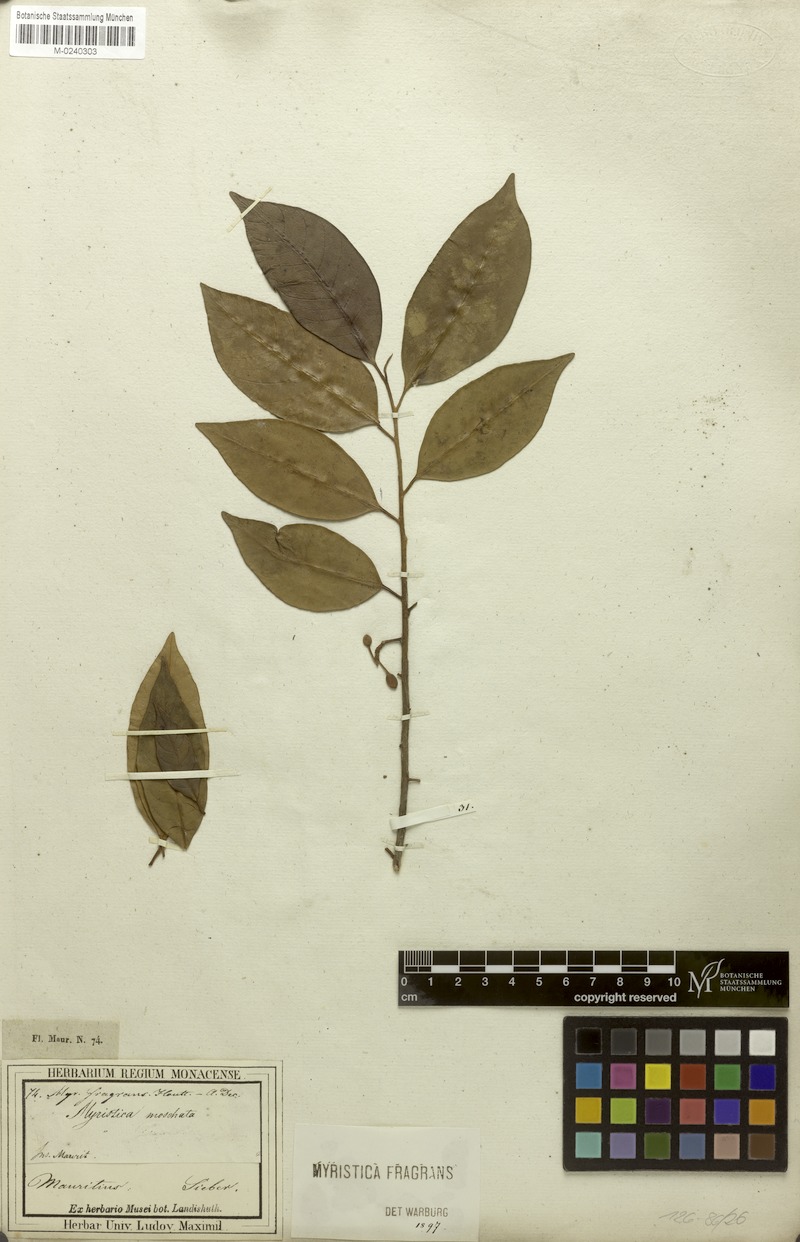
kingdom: Plantae
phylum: Tracheophyta
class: Magnoliopsida
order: Magnoliales
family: Myristicaceae
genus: Myristica
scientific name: Myristica fragrans
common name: Nutmeg
